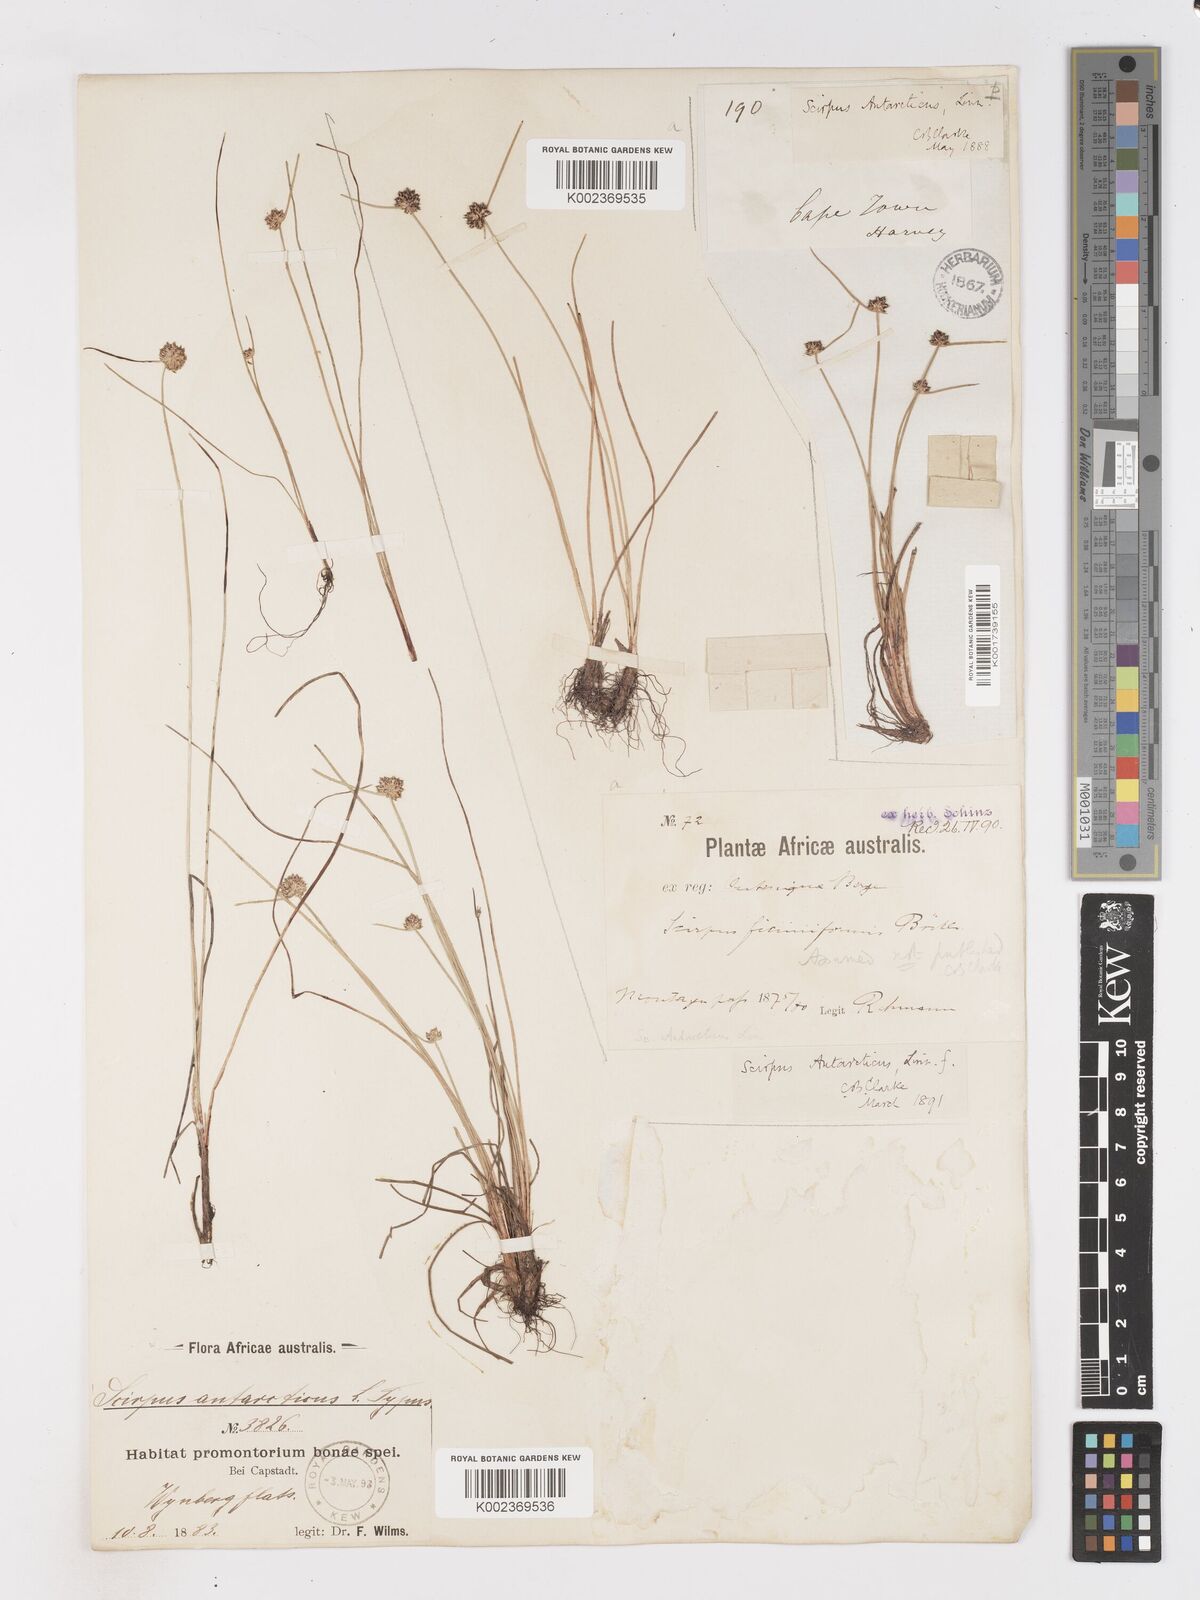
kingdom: Plantae
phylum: Tracheophyta
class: Liliopsida
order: Poales
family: Cyperaceae
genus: Isolepis
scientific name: Isolepis antarctica
